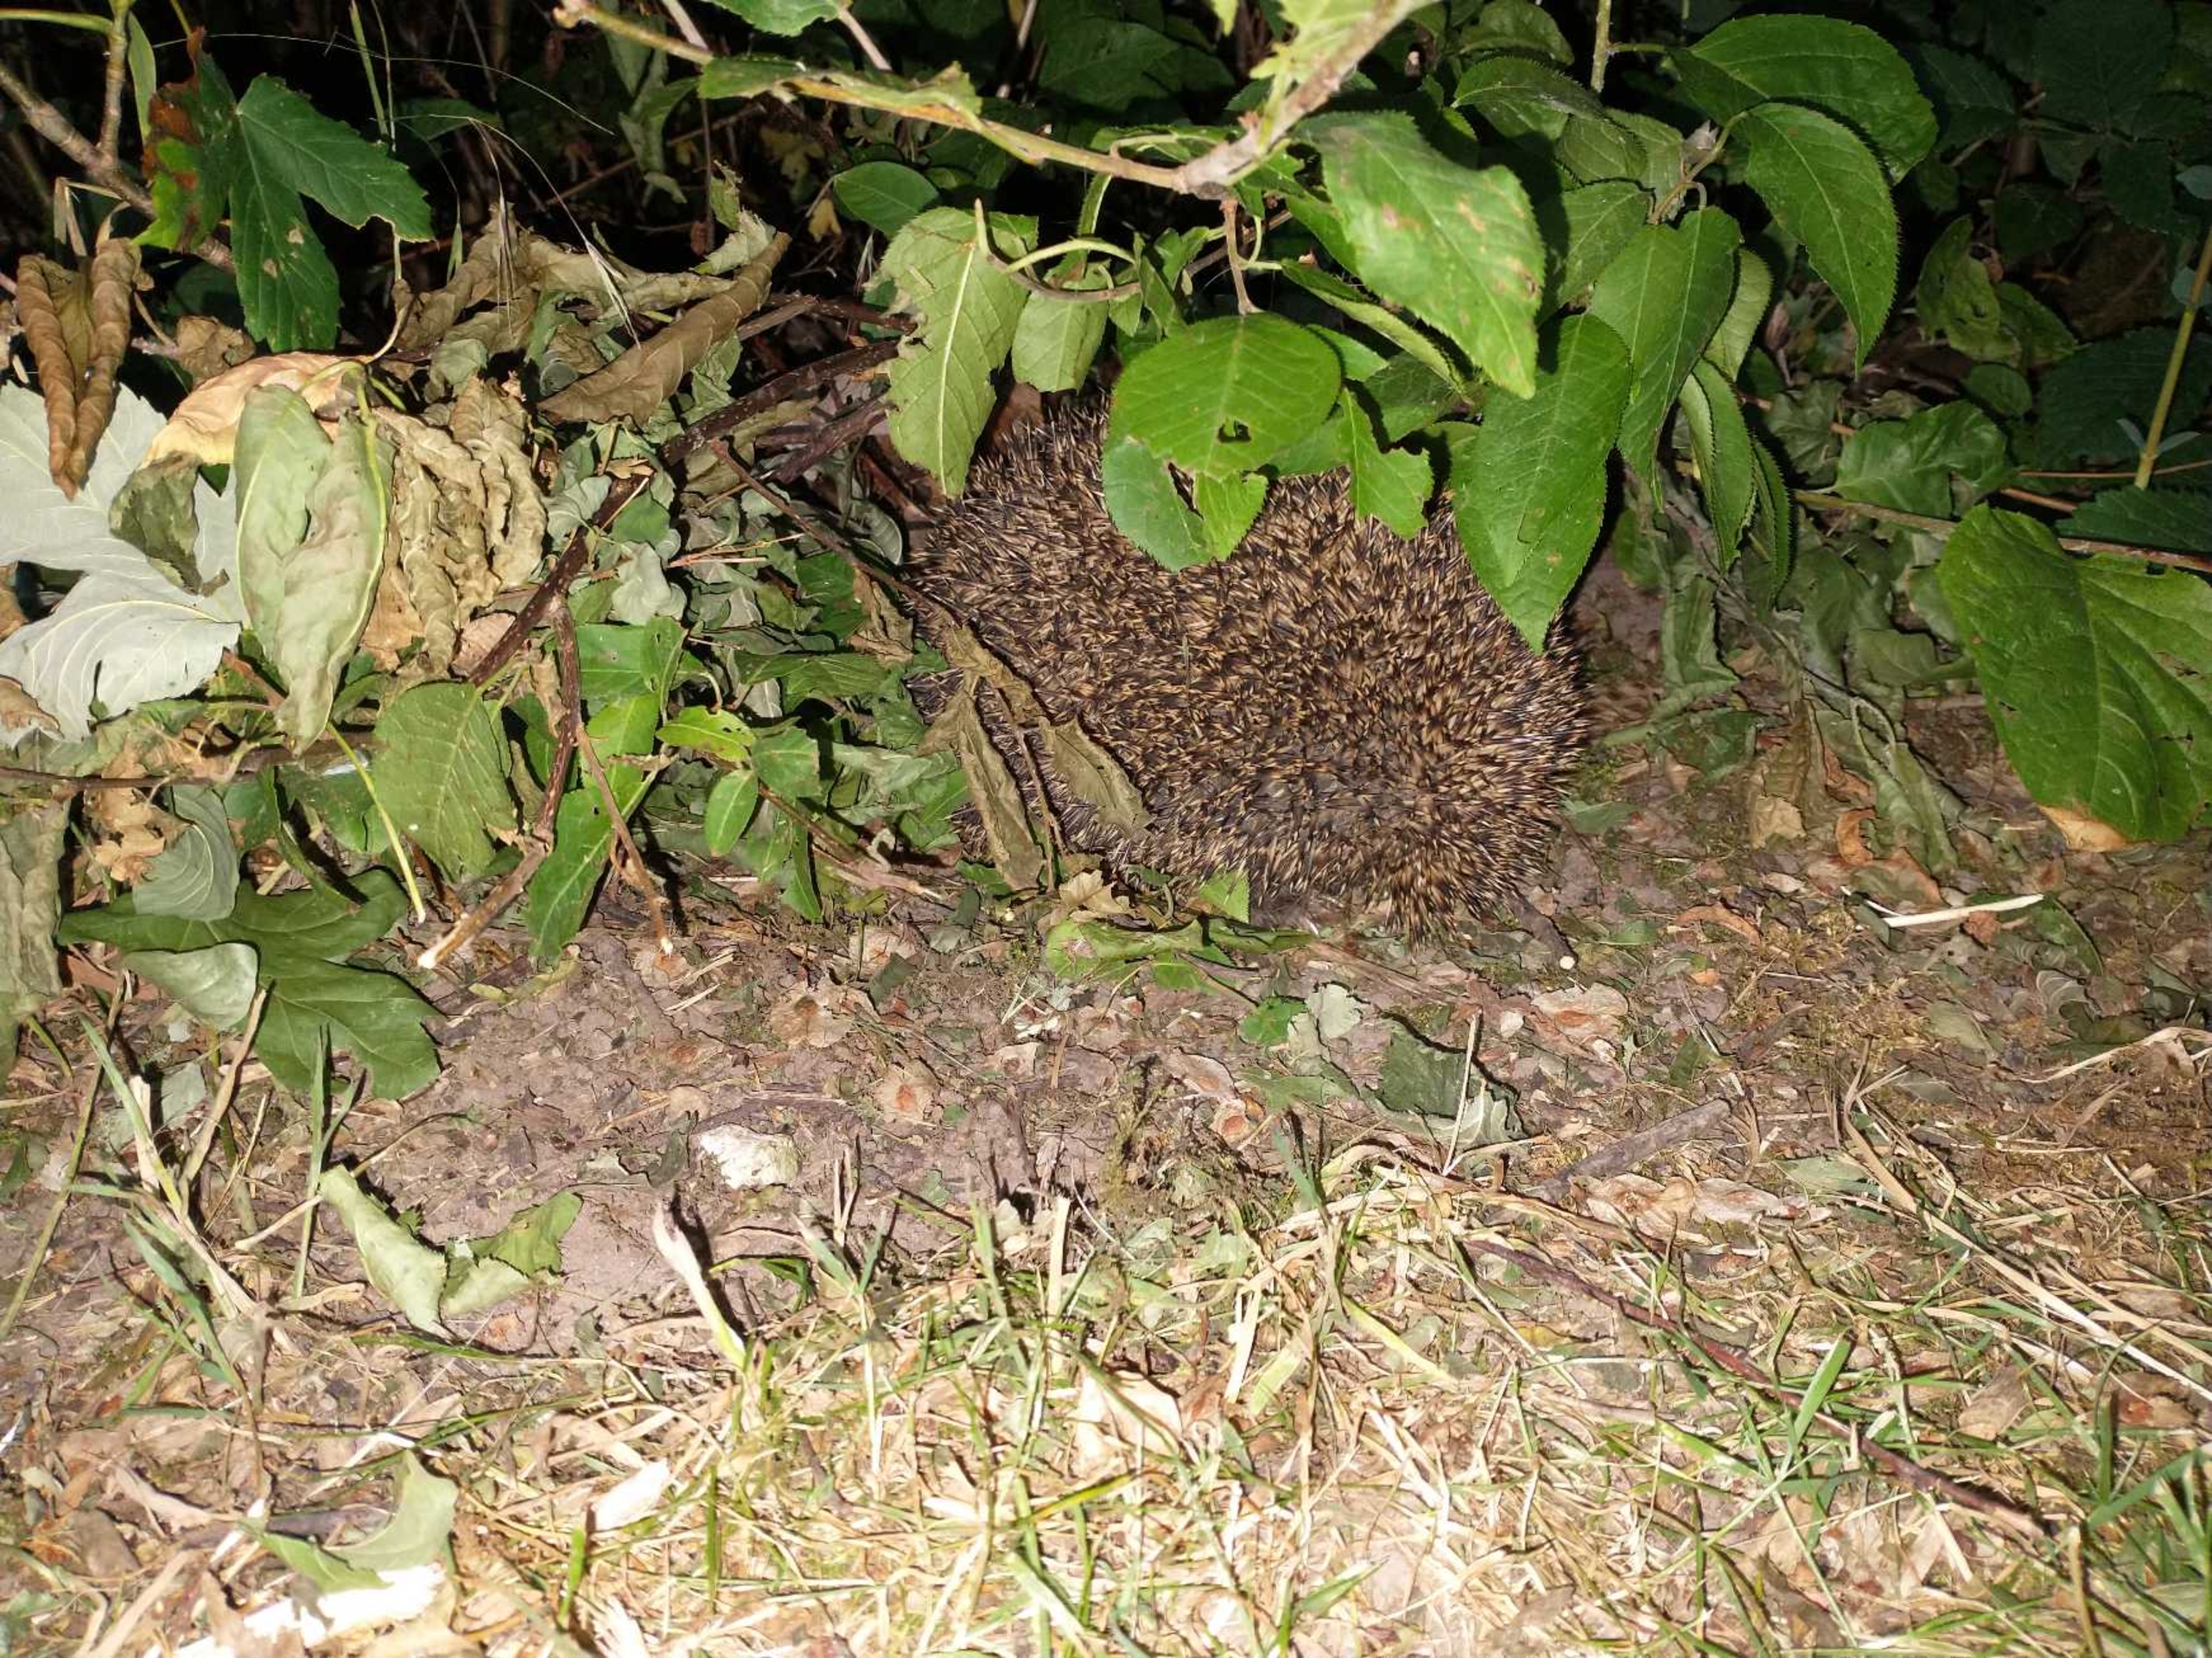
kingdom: Animalia
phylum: Chordata
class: Mammalia
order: Erinaceomorpha
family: Erinaceidae
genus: Erinaceus
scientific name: Erinaceus europaeus
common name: Pindsvin
